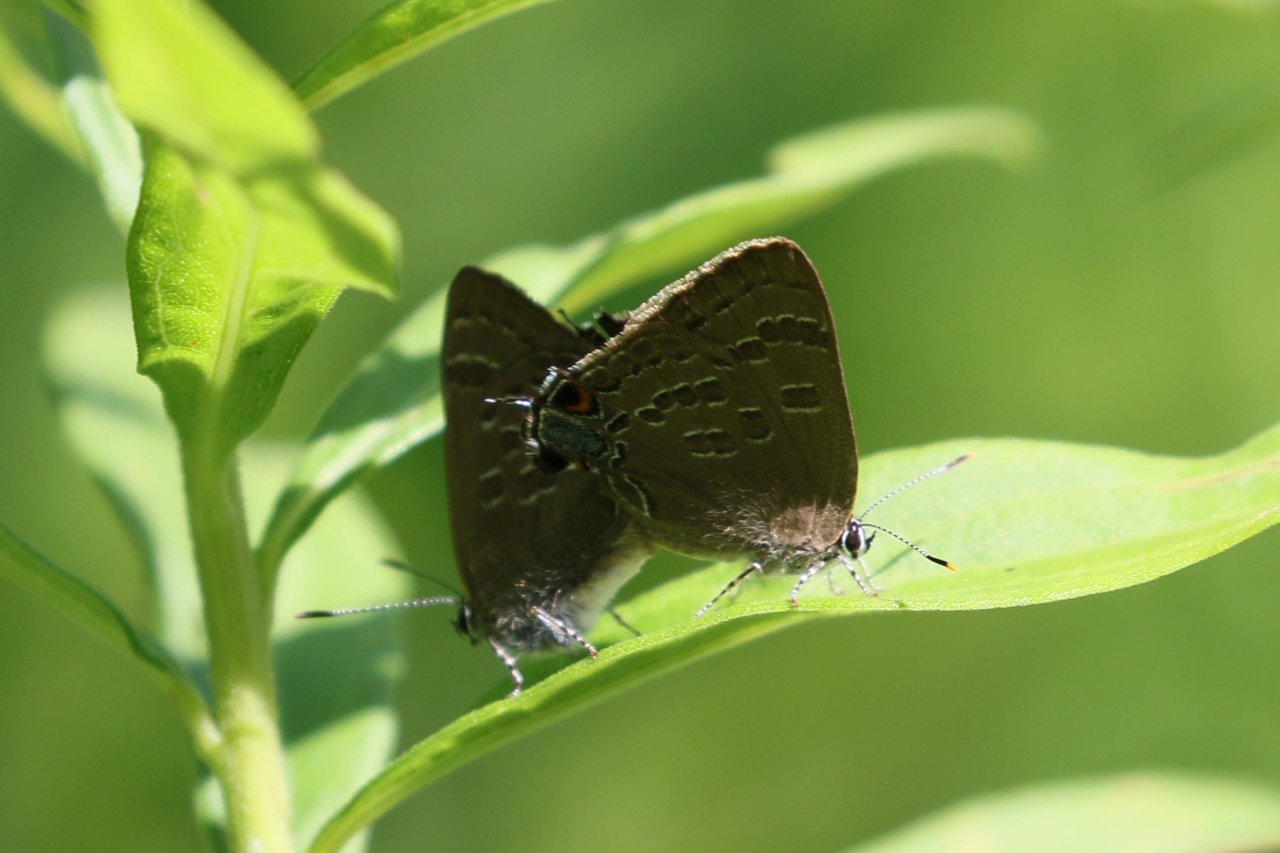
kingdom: Animalia
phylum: Arthropoda
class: Insecta
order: Lepidoptera
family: Lycaenidae
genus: Strymon
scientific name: Strymon caryaevorus
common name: Hickory Hairstreak
